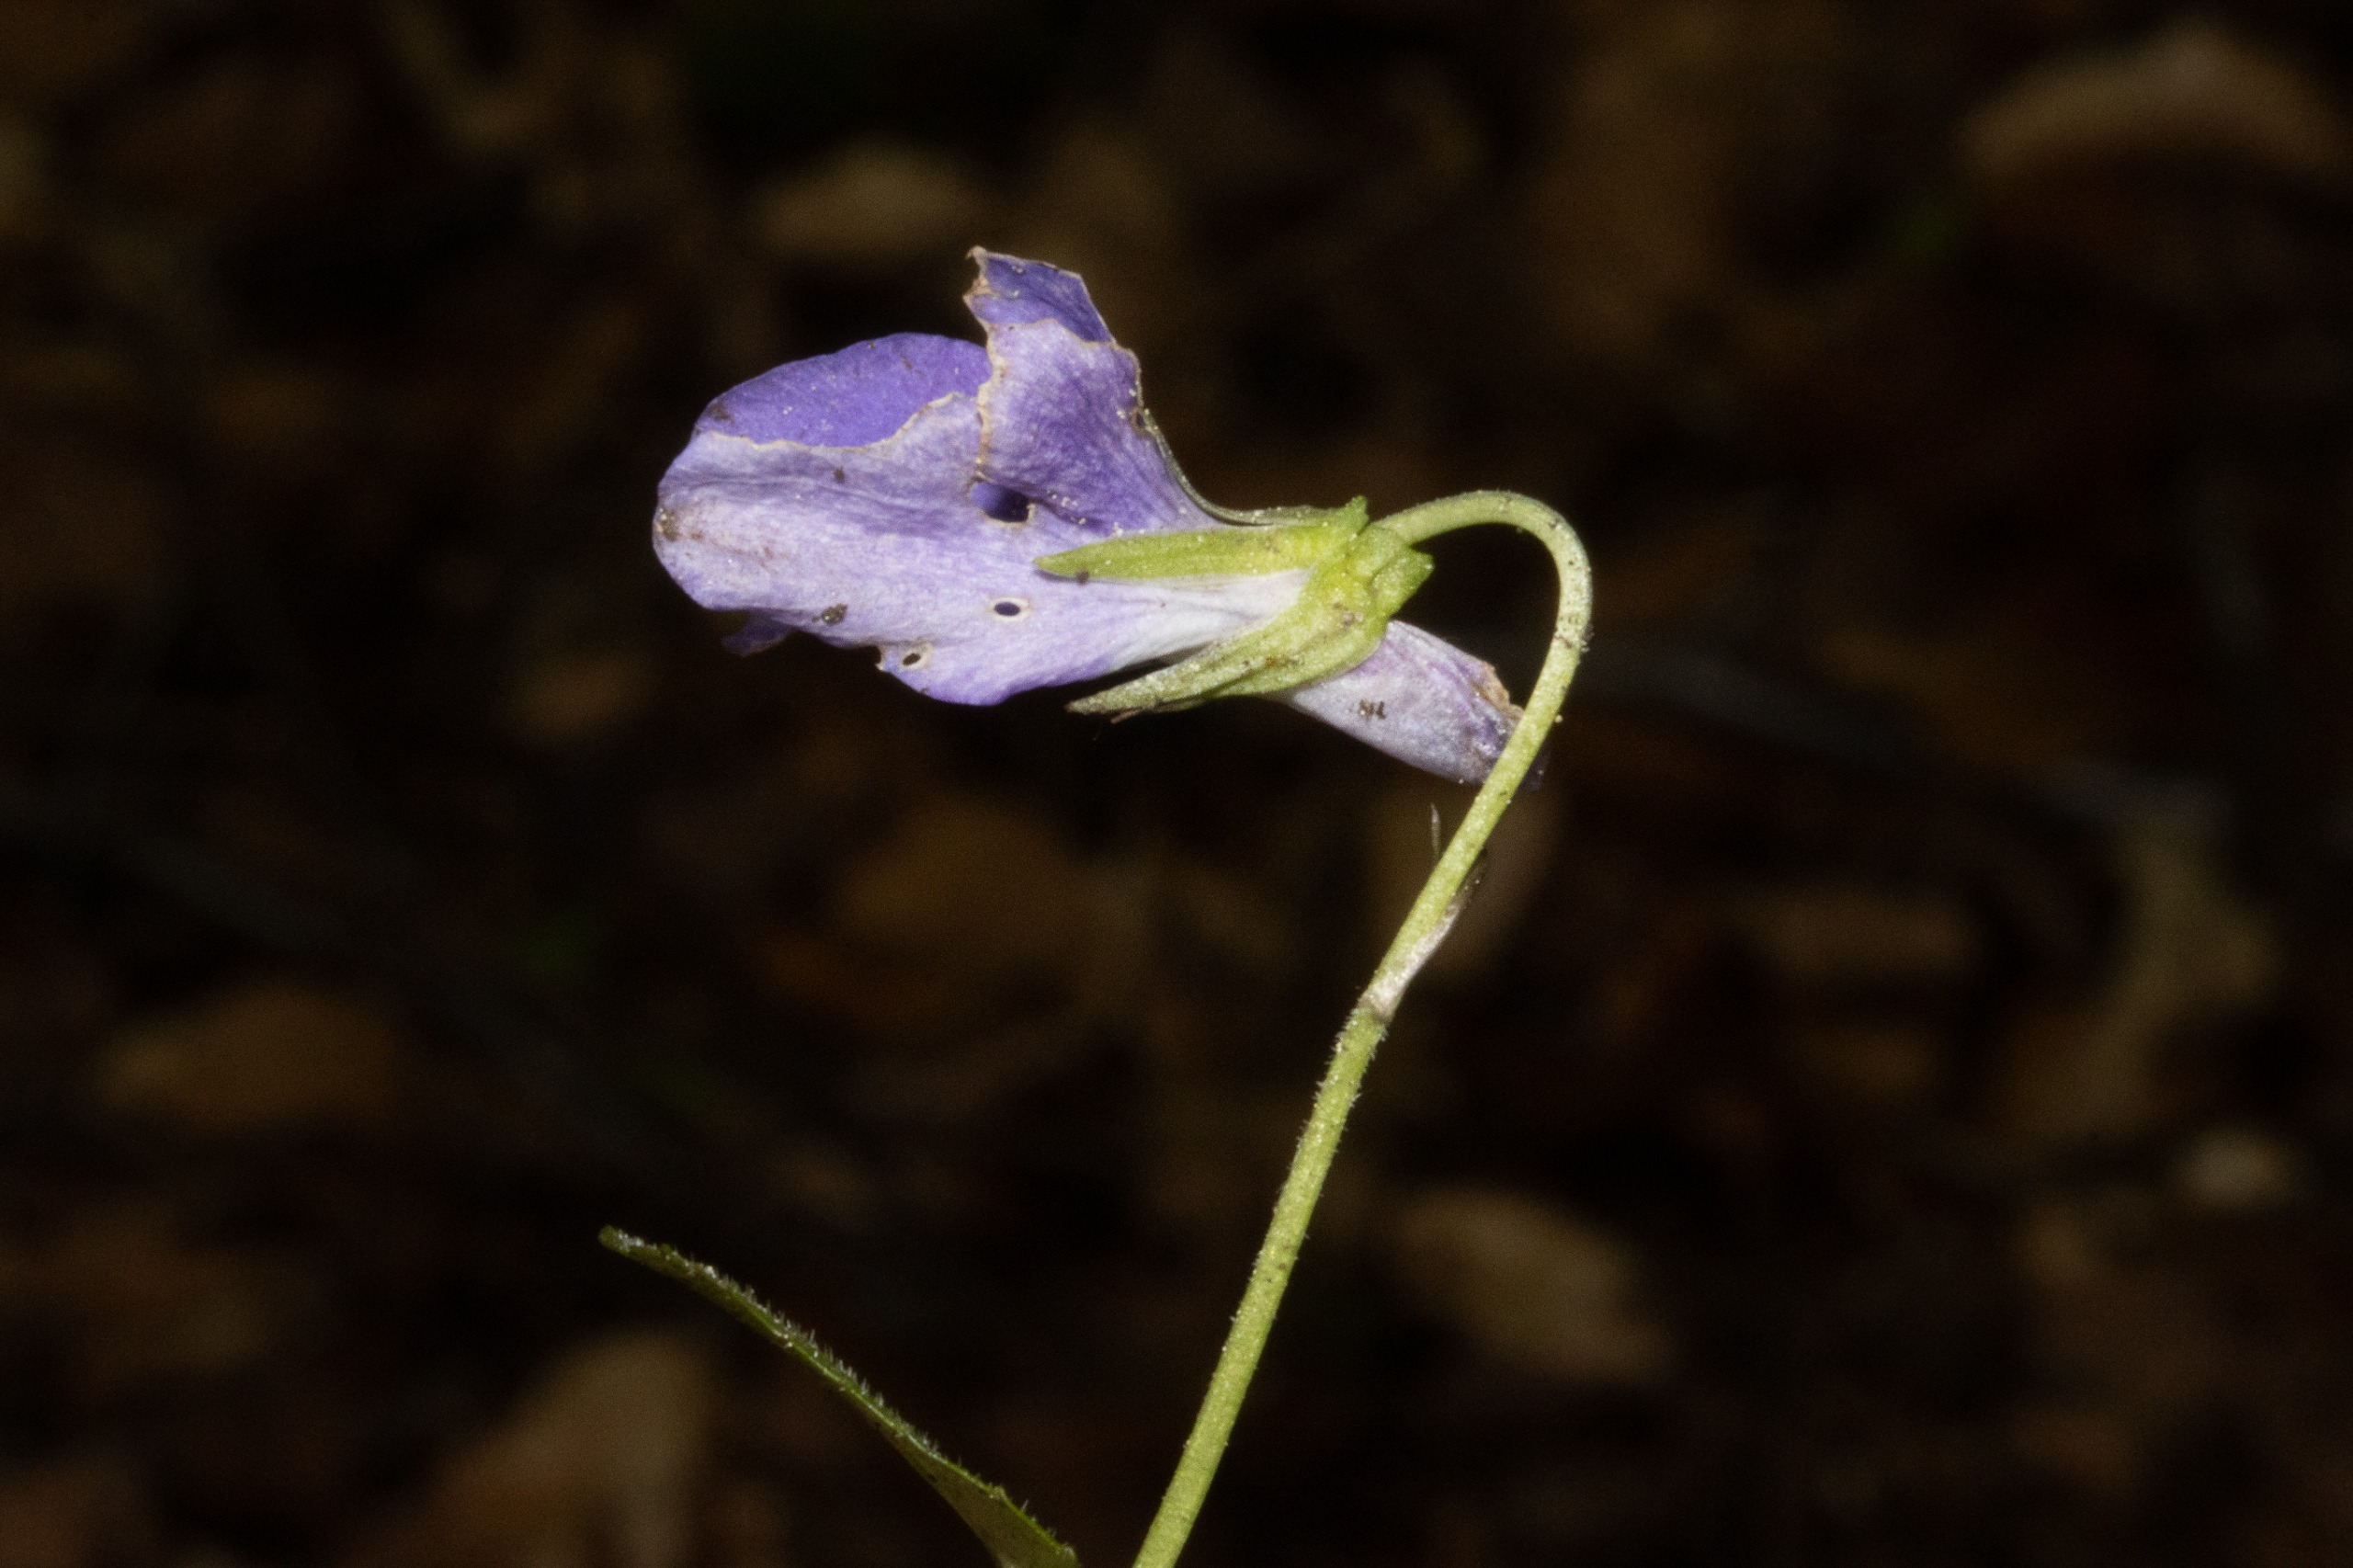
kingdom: Plantae
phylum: Tracheophyta
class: Magnoliopsida
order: Malpighiales
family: Violaceae
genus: Viola
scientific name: Viola riviniana
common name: Krat-viol
